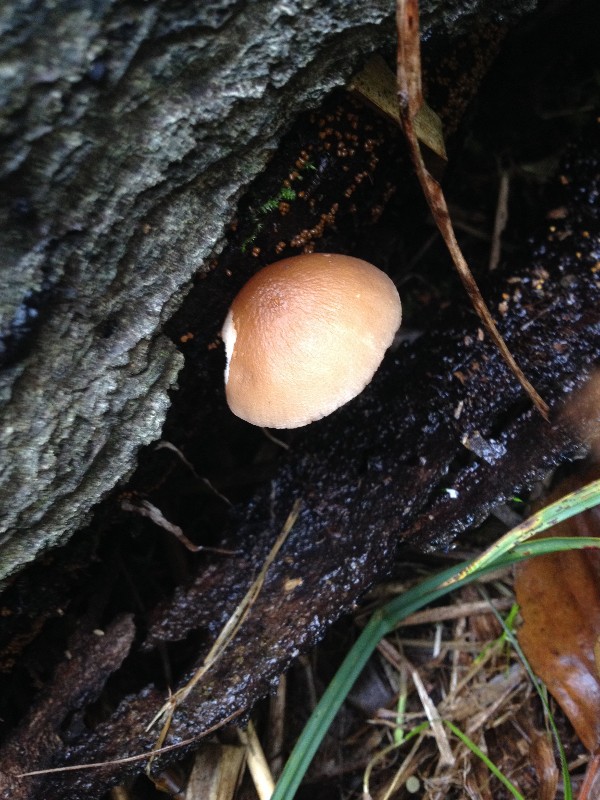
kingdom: Fungi
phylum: Basidiomycota
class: Agaricomycetes
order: Agaricales
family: Strophariaceae
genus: Kuehneromyces
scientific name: Kuehneromyces mutabilis
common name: foranderlig skælhat
